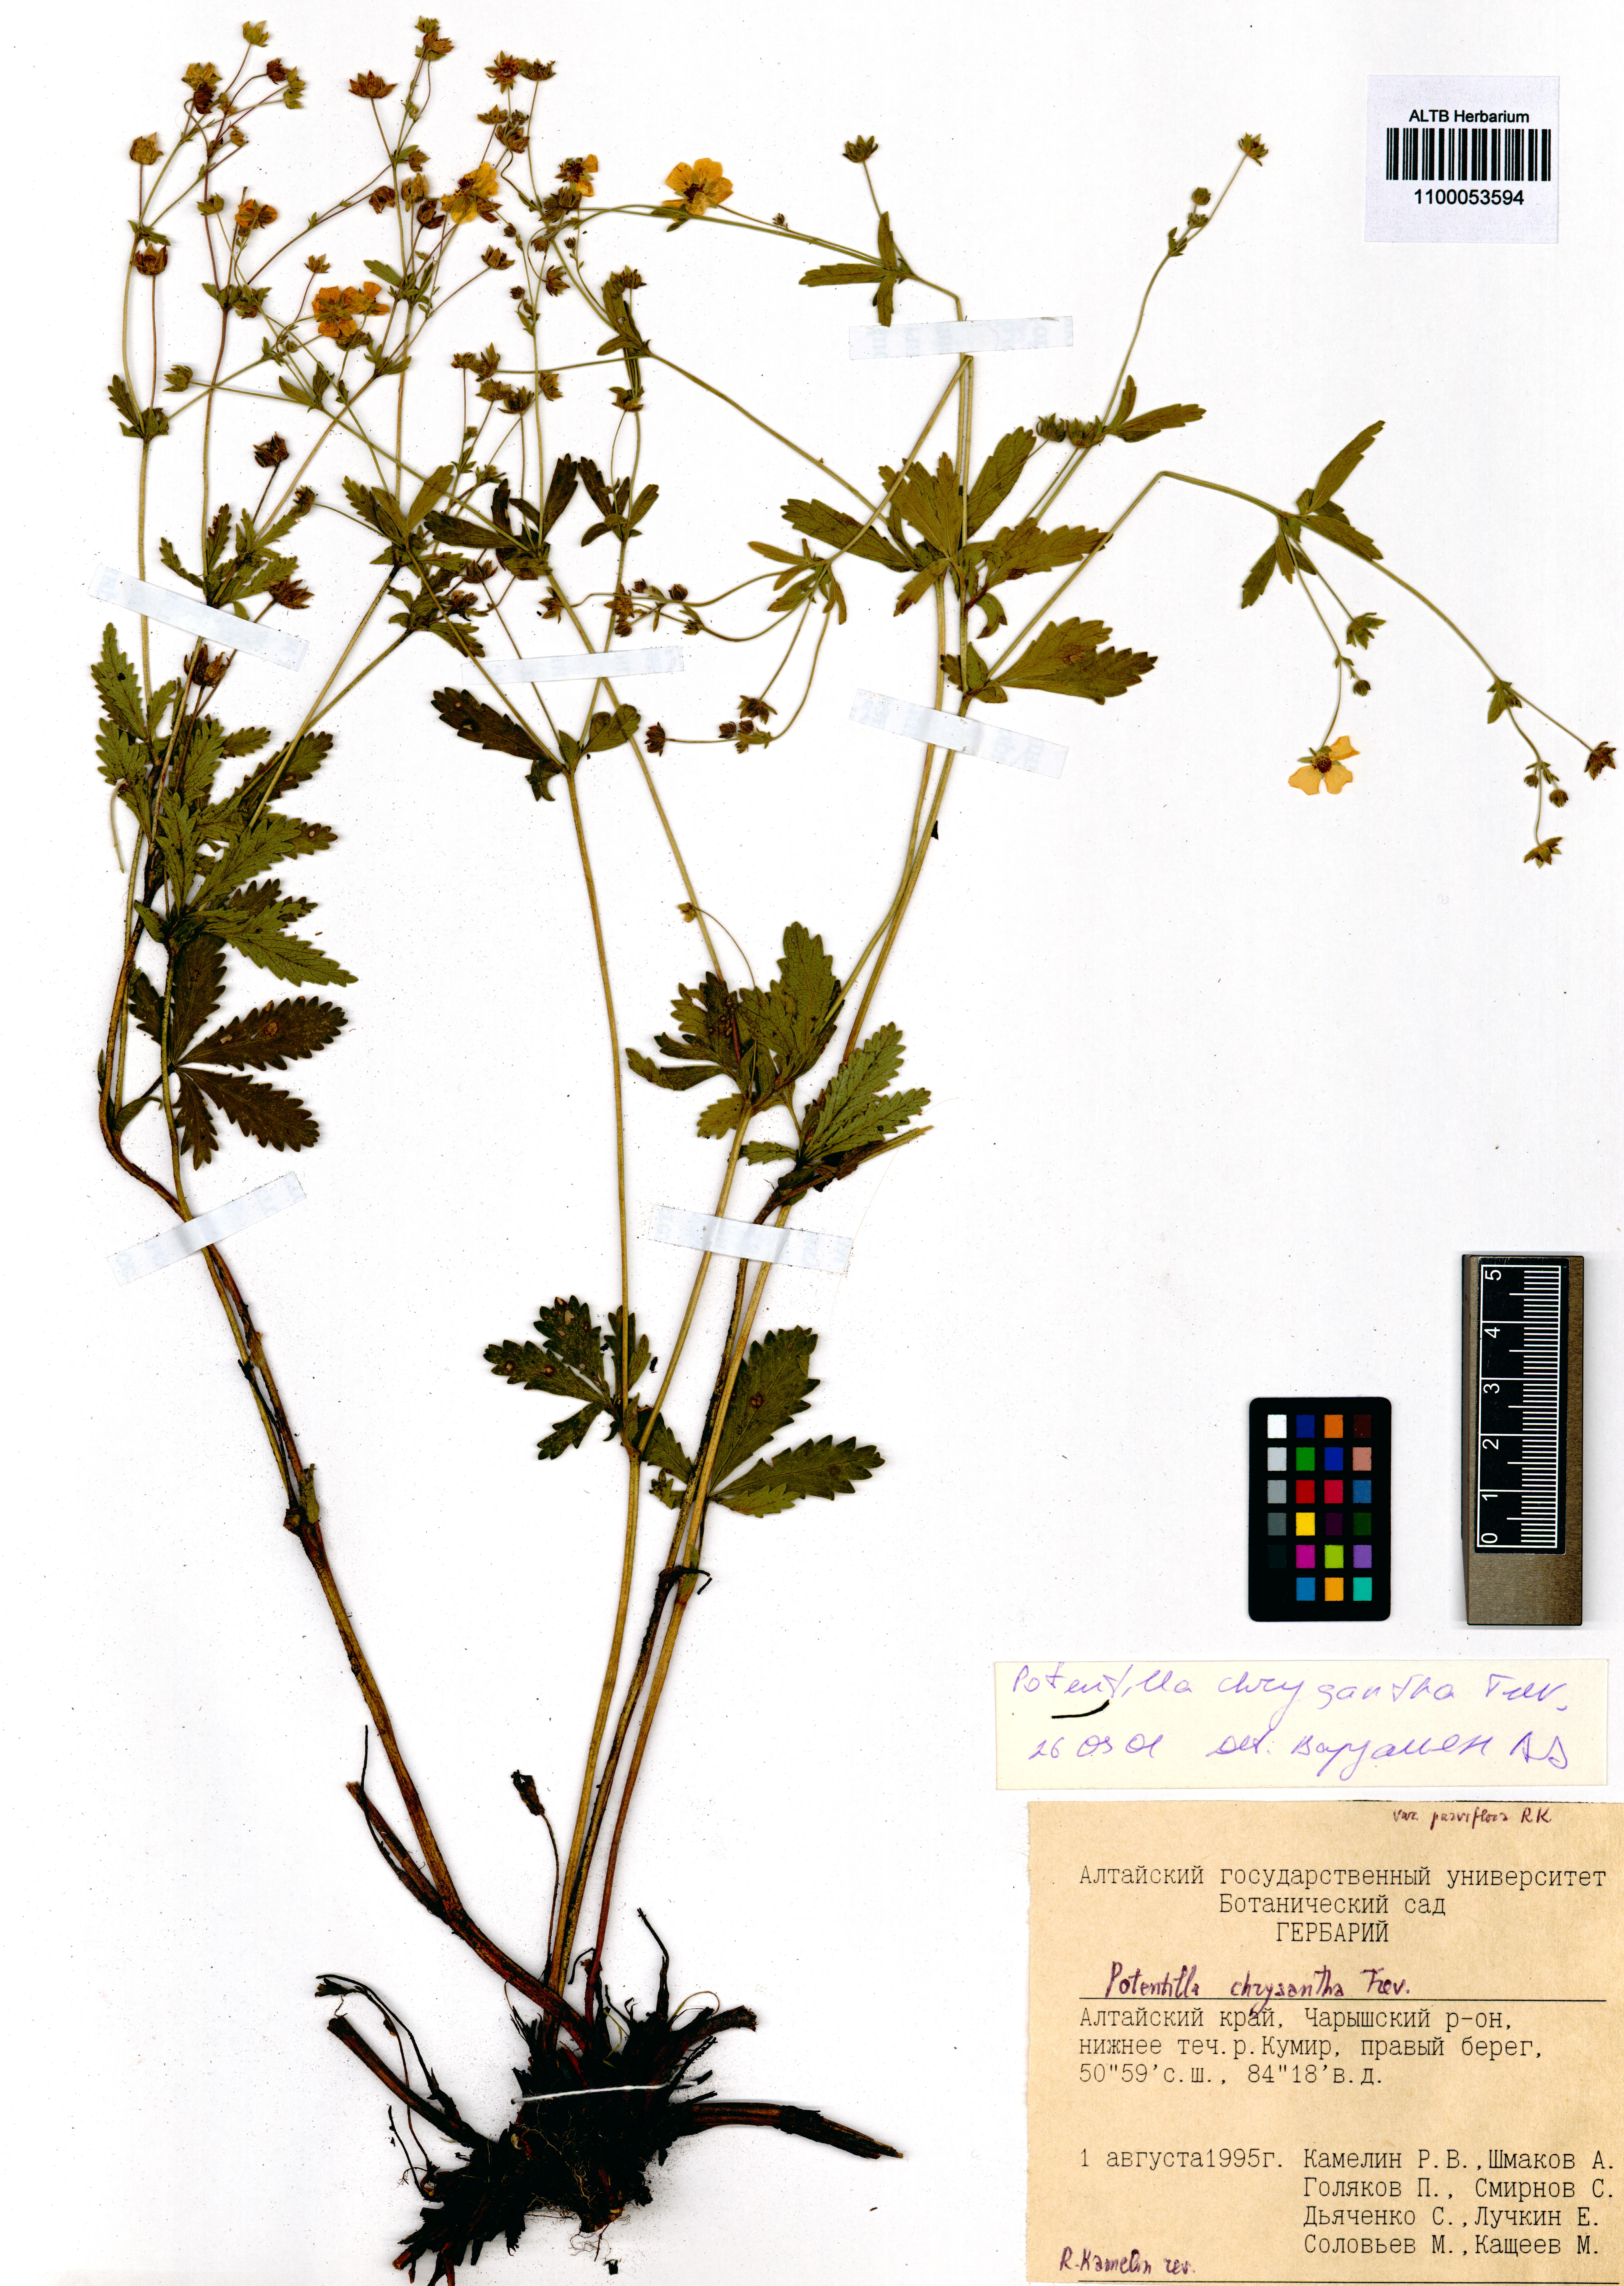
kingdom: Plantae
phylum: Tracheophyta
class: Magnoliopsida
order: Rosales
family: Rosaceae
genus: Potentilla
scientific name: Potentilla chrysantha
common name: Thuringian cinquefoil
